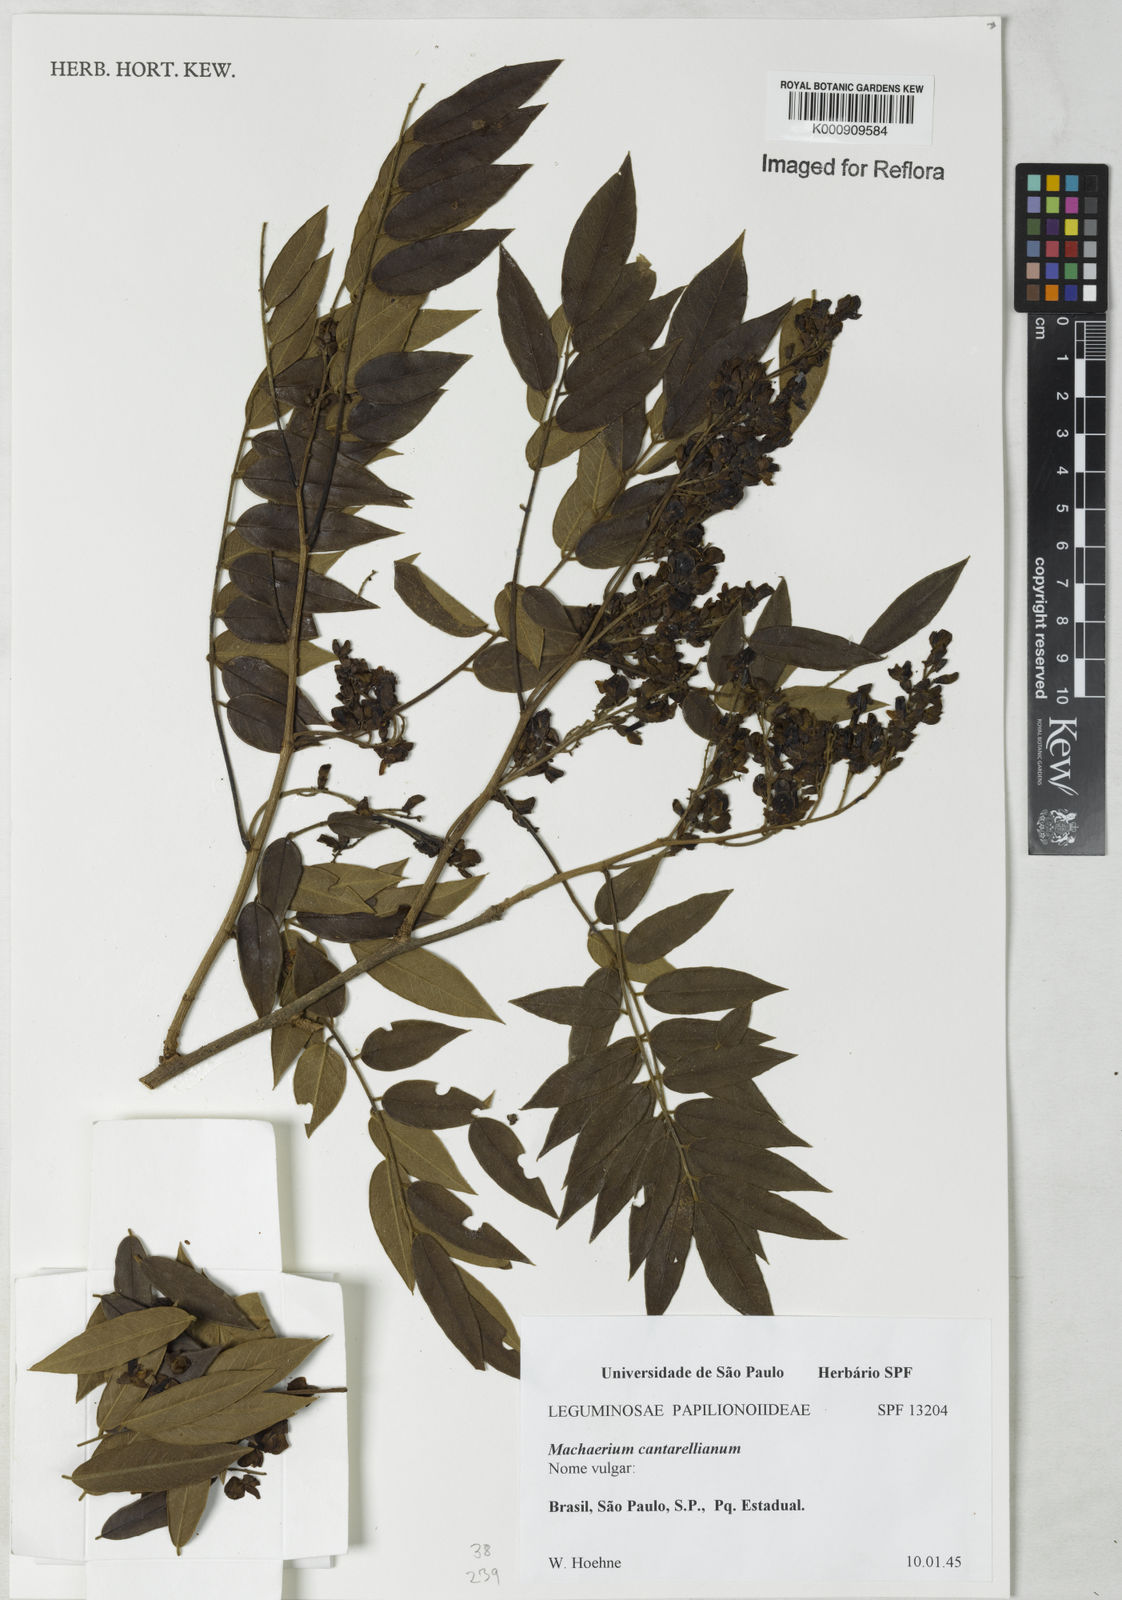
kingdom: Plantae
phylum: Tracheophyta
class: Magnoliopsida
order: Fabales
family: Fabaceae
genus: Machaerium
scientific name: Machaerium cantarellianum
